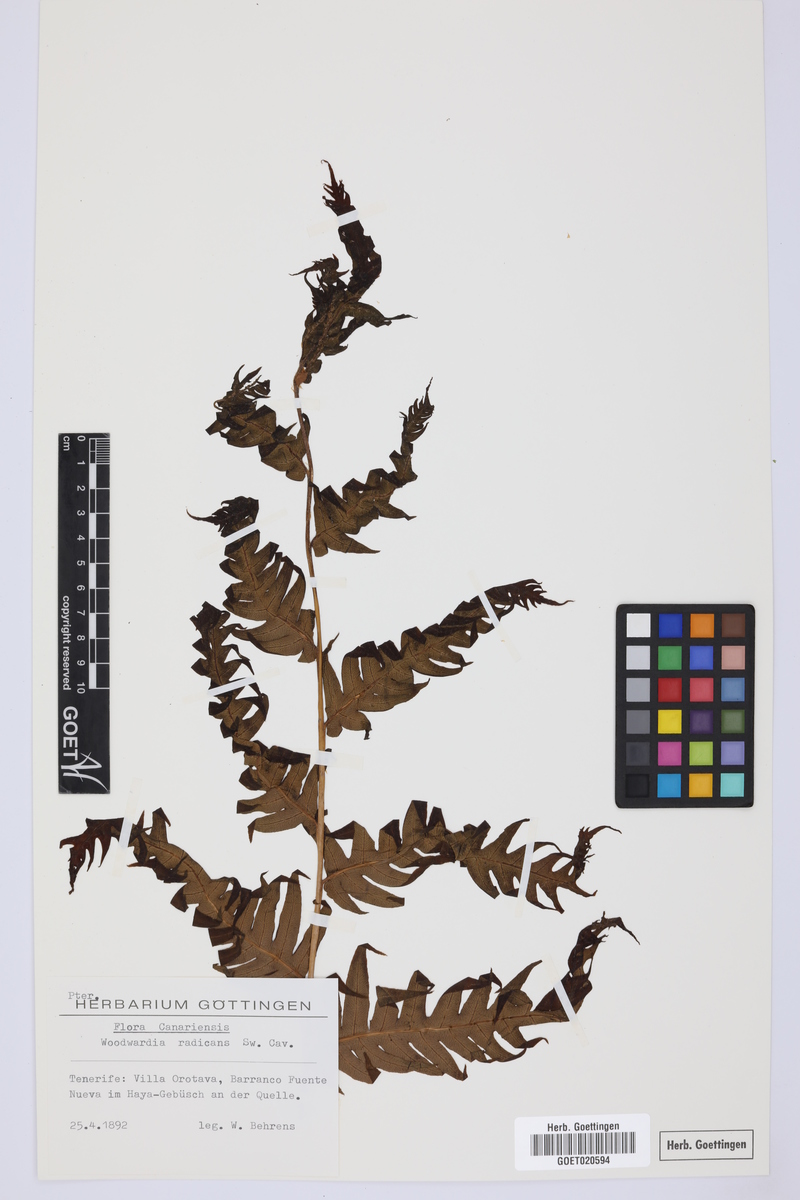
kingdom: Plantae
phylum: Tracheophyta
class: Polypodiopsida
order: Polypodiales
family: Blechnaceae
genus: Woodwardia
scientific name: Woodwardia radicans
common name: Rooting chainfern
